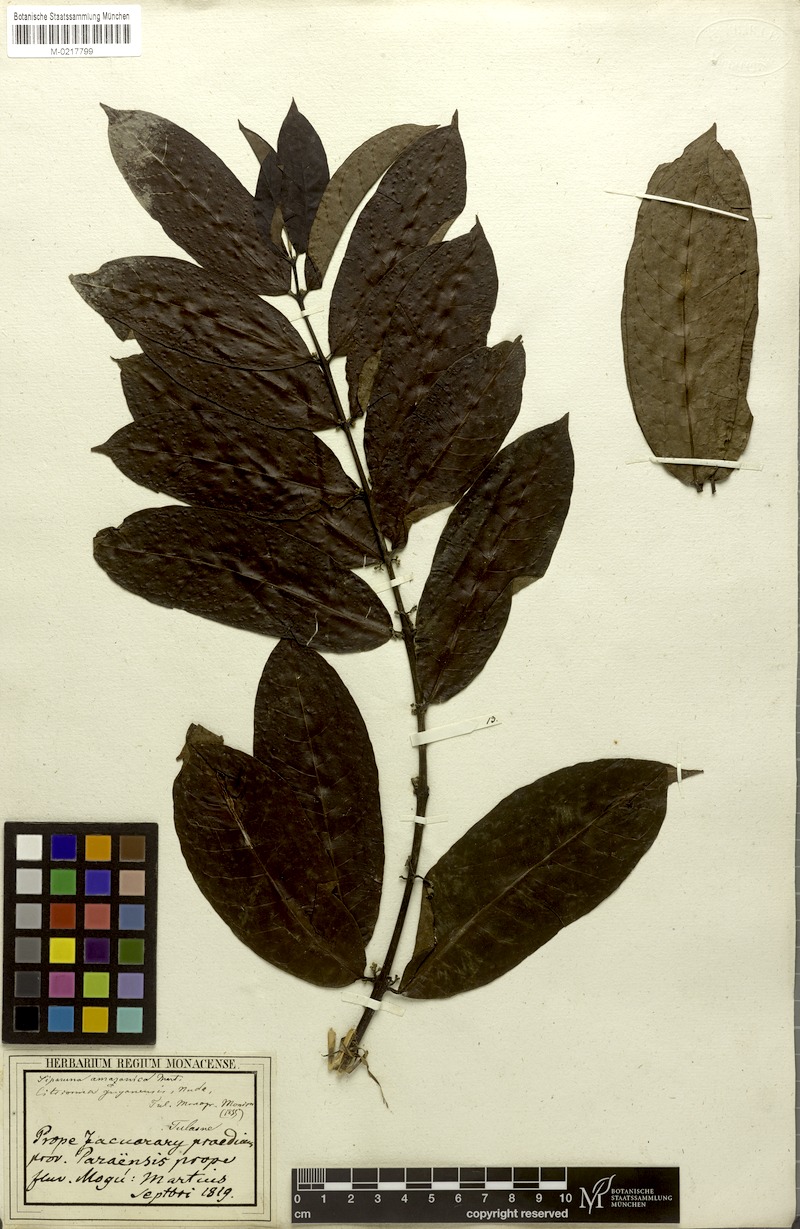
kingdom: Plantae
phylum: Tracheophyta
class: Magnoliopsida
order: Laurales
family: Siparunaceae
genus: Siparuna
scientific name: Siparuna poeppigii
